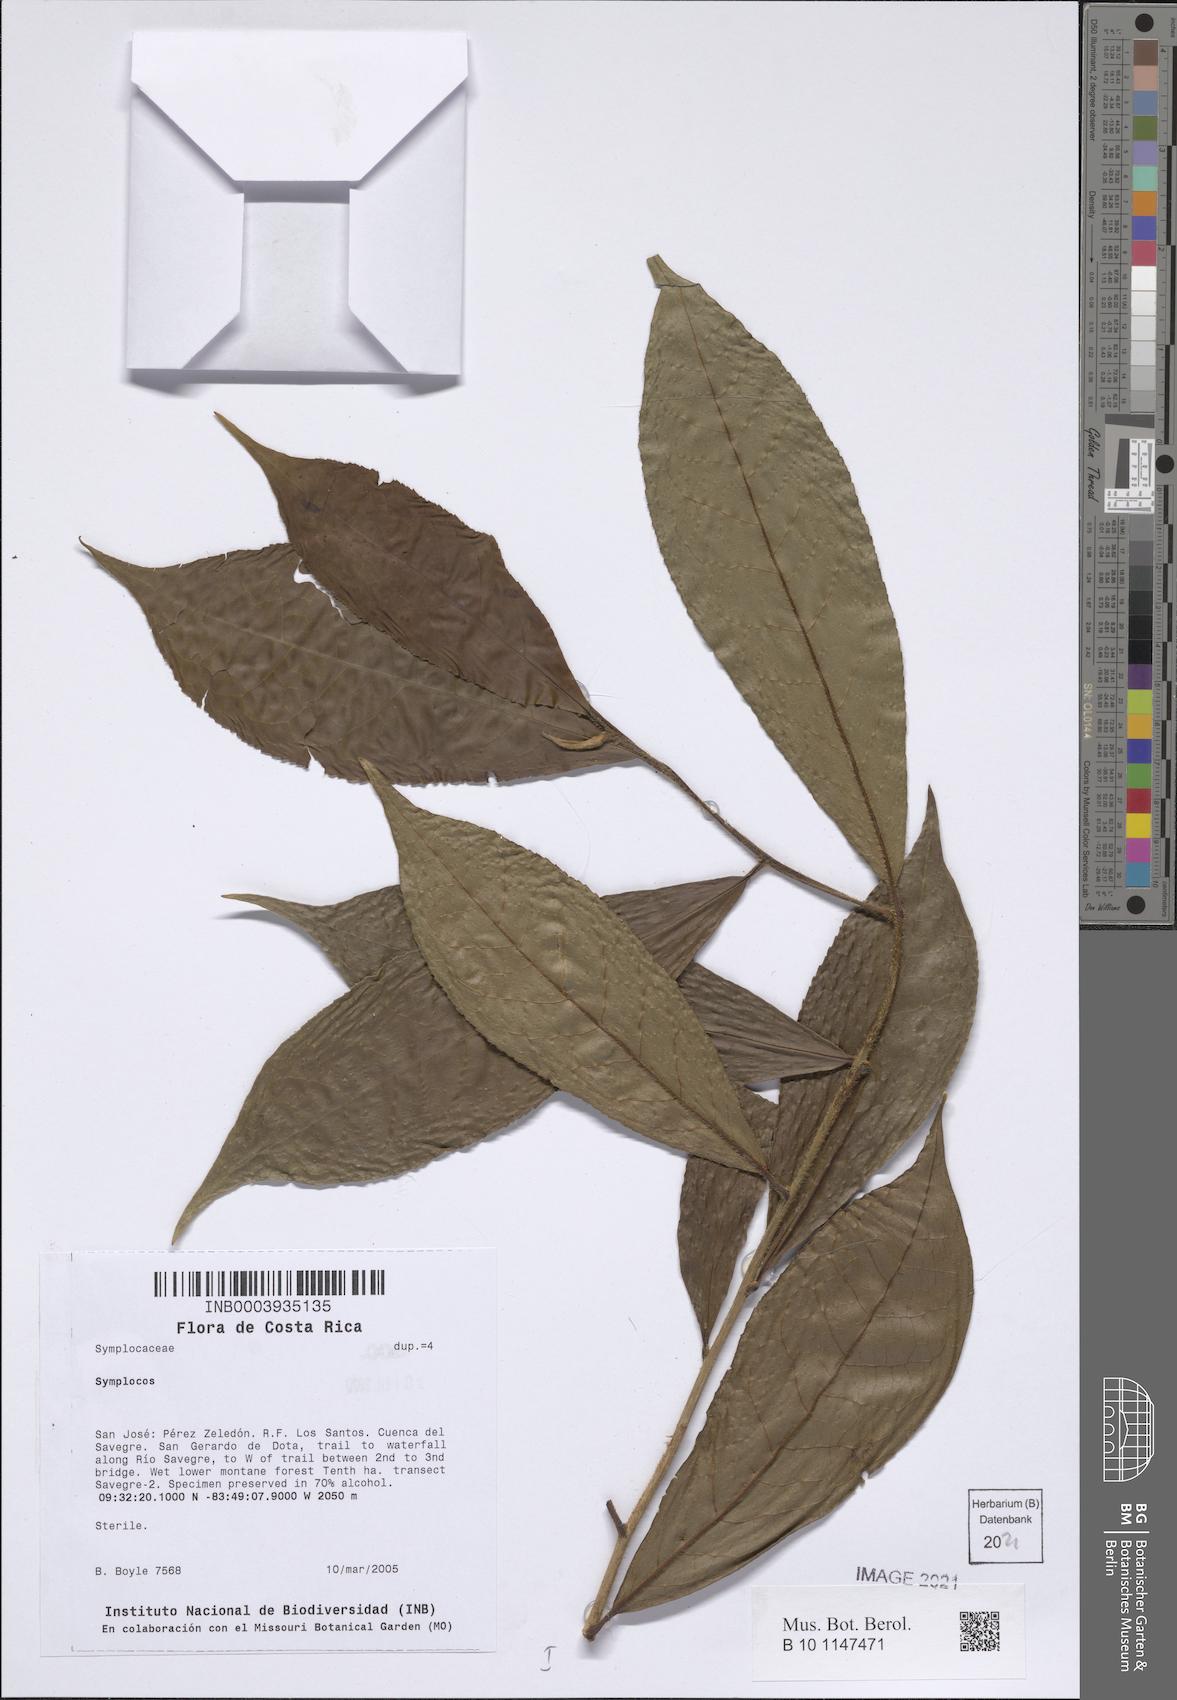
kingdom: Plantae
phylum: Tracheophyta
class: Magnoliopsida
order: Ericales
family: Symplocaceae
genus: Symplocos
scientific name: Symplocos
